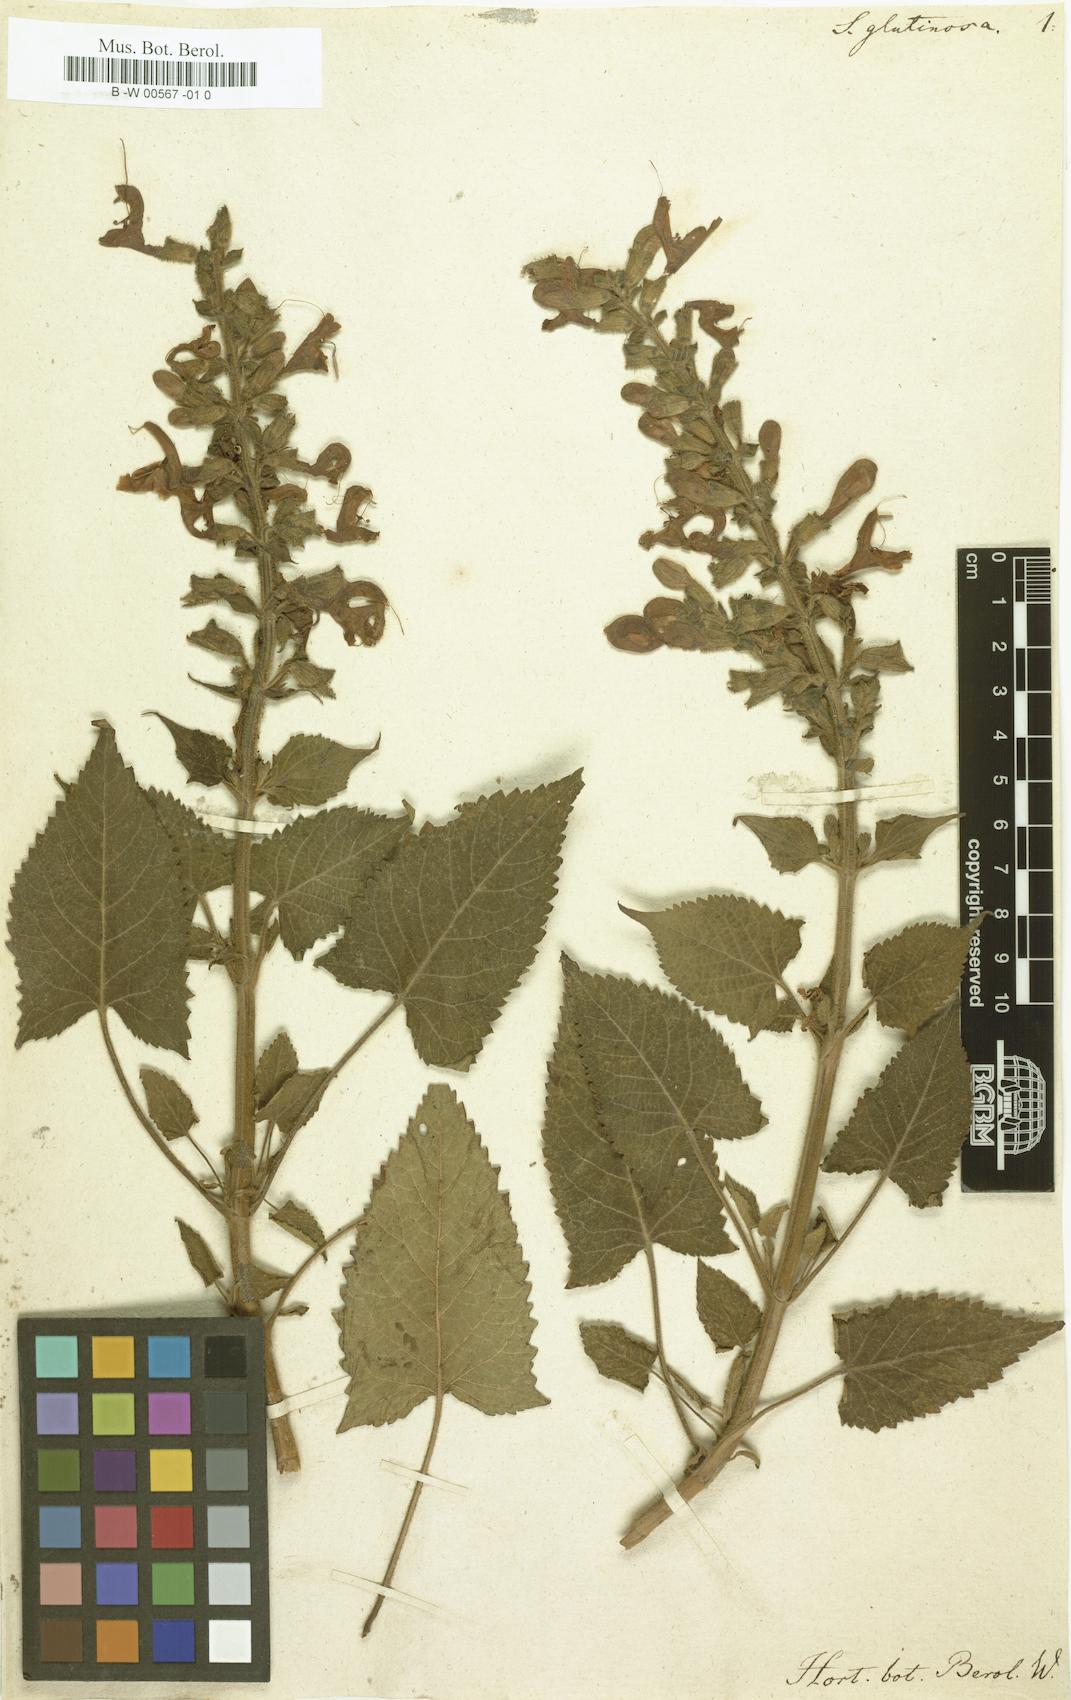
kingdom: Plantae
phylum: Tracheophyta
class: Magnoliopsida
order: Lamiales
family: Lamiaceae
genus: Salvia
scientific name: Salvia glutinosa
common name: Sticky clary
